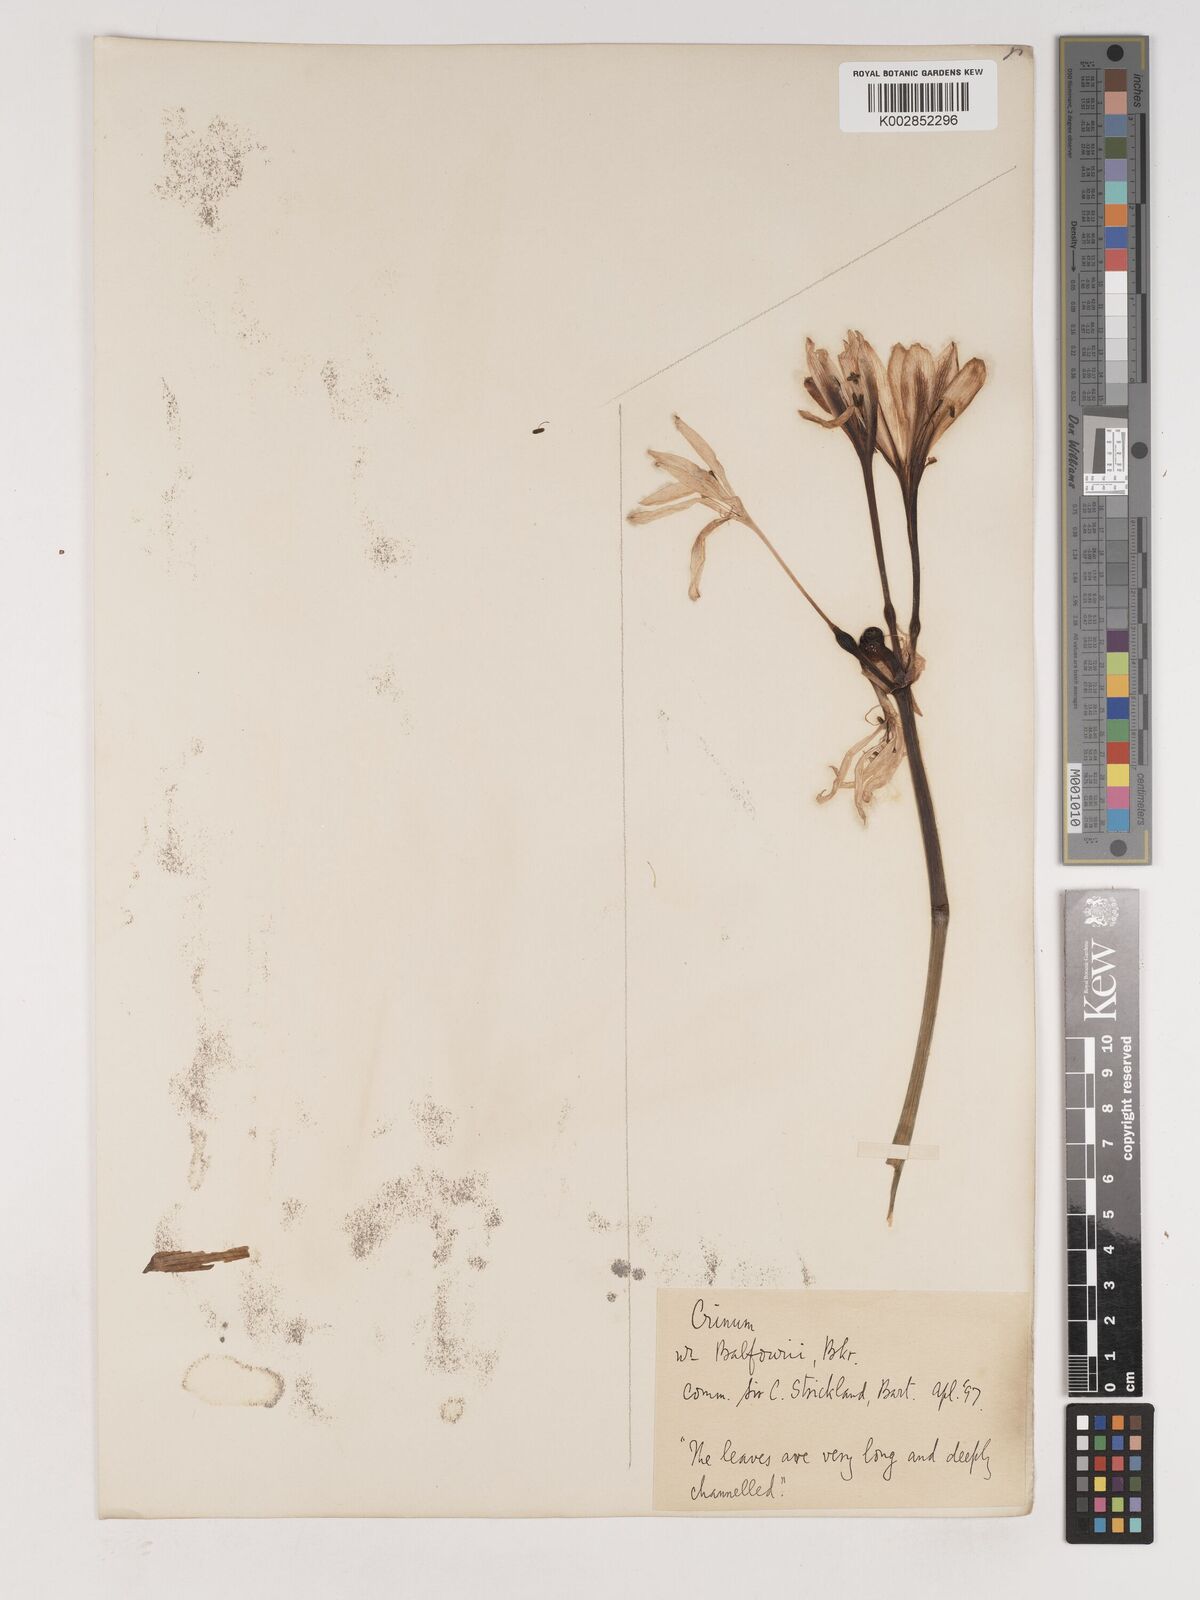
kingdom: Plantae
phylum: Tracheophyta
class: Liliopsida
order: Asparagales
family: Amaryllidaceae
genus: Crinum
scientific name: Crinum
